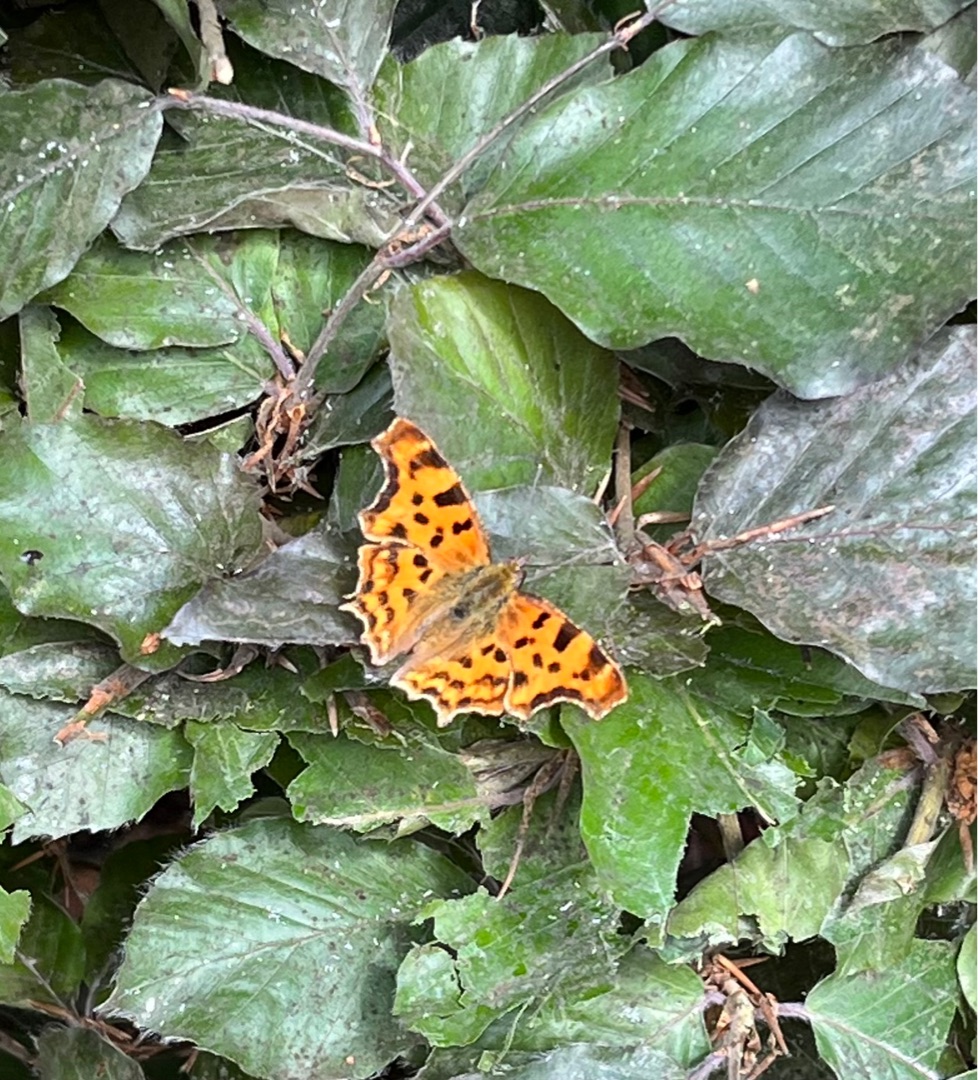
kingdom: Animalia
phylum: Arthropoda
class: Insecta
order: Lepidoptera
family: Nymphalidae
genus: Polygonia
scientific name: Polygonia c-album
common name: Det hvide C
